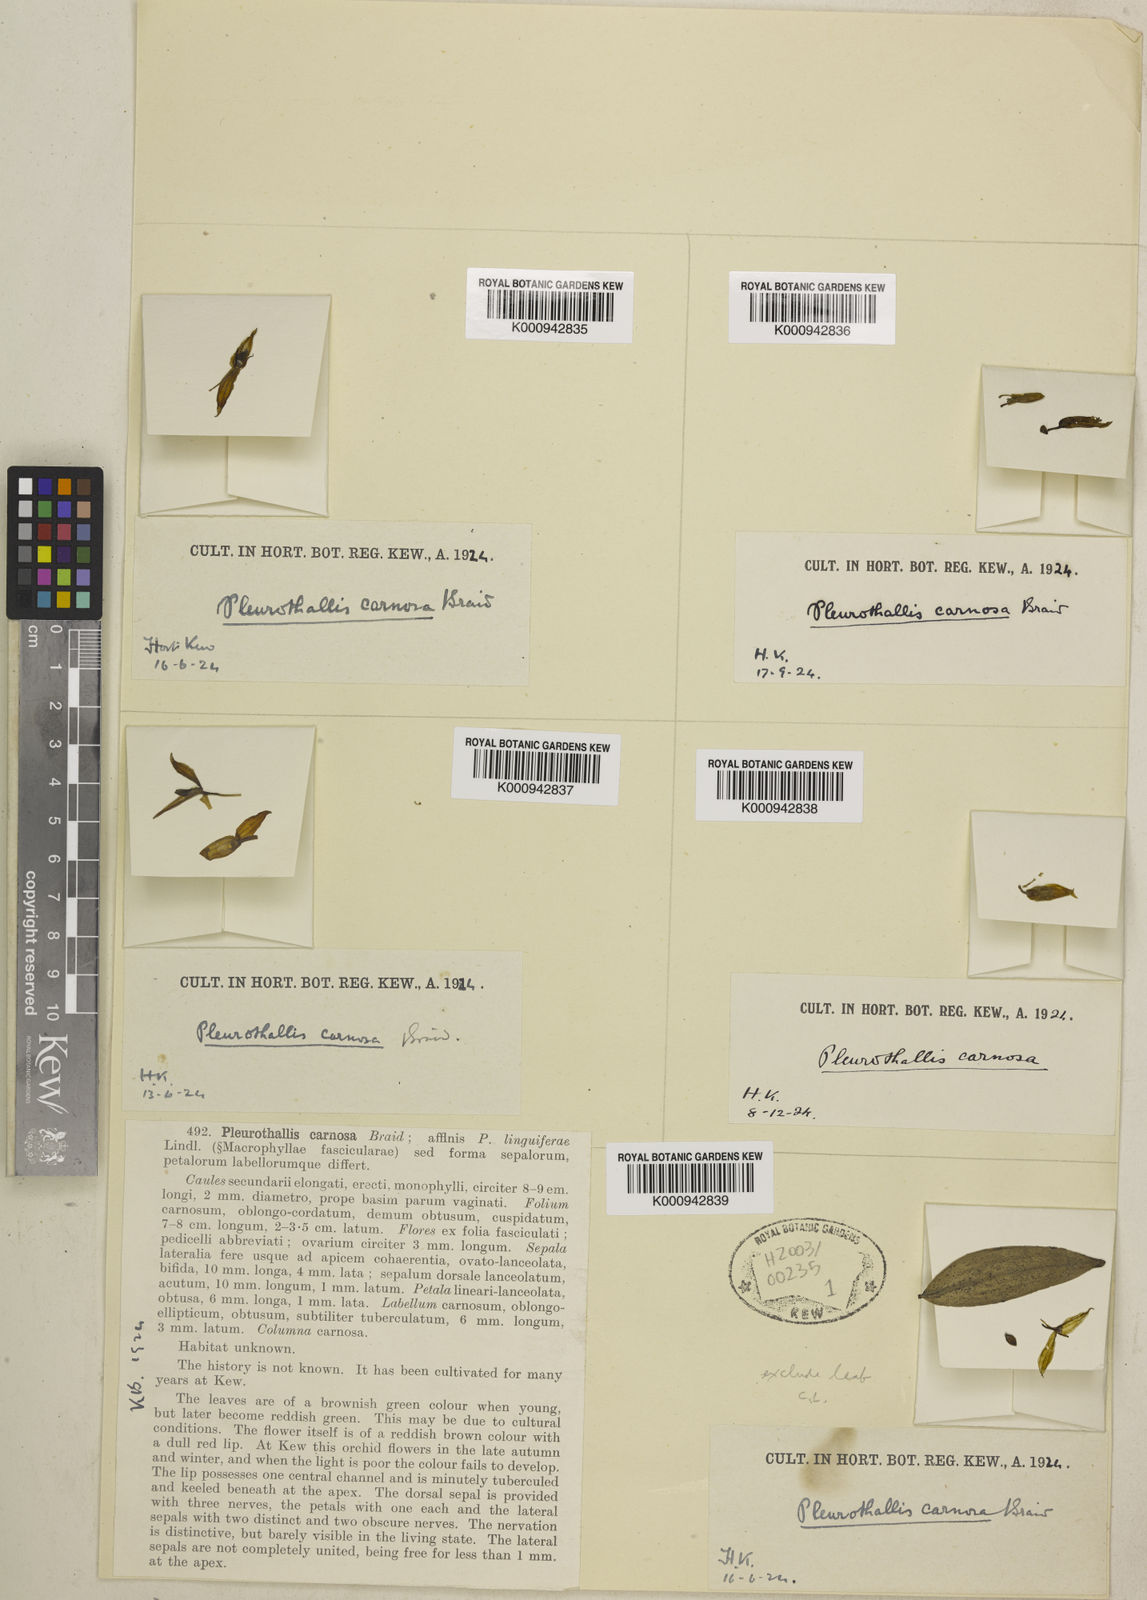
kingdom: Plantae
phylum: Tracheophyta
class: Liliopsida
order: Asparagales
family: Orchidaceae
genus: Pleurothallis
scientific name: Pleurothallis carnosa
